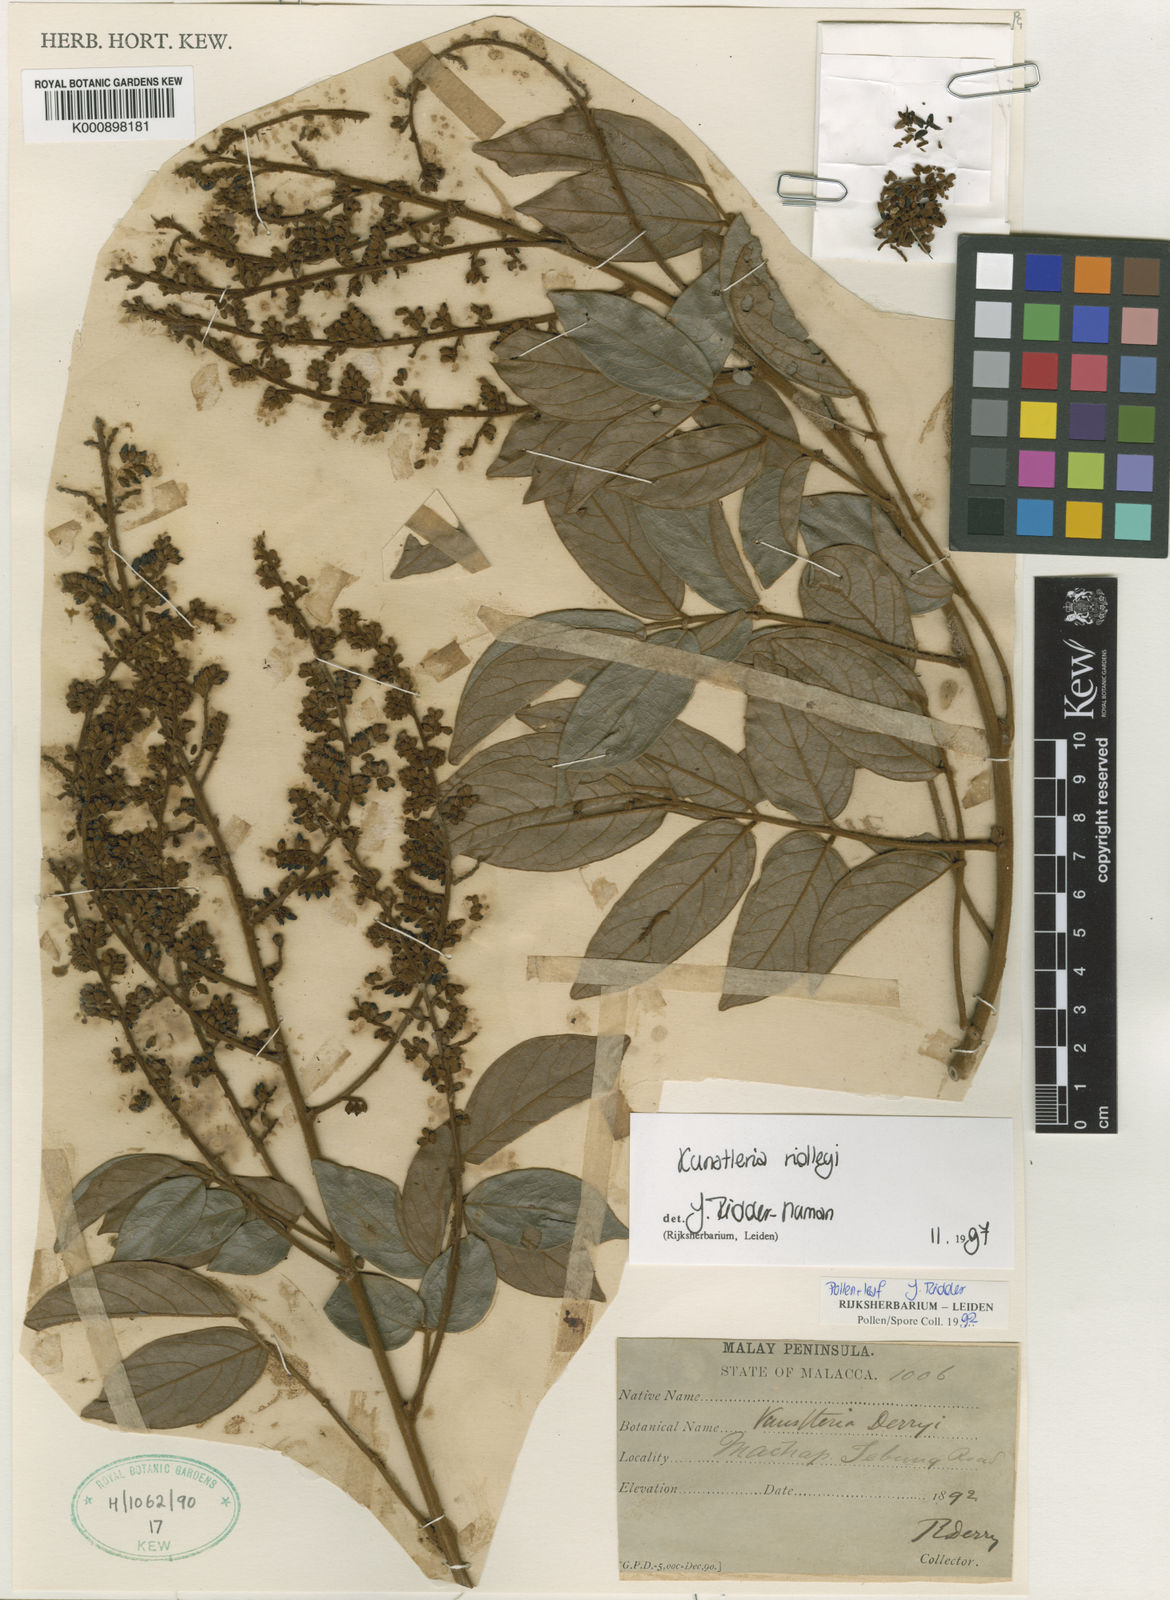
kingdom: Plantae
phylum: Tracheophyta
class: Magnoliopsida
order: Fabales
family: Fabaceae
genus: Kunstleria
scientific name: Kunstleria ridleyi
